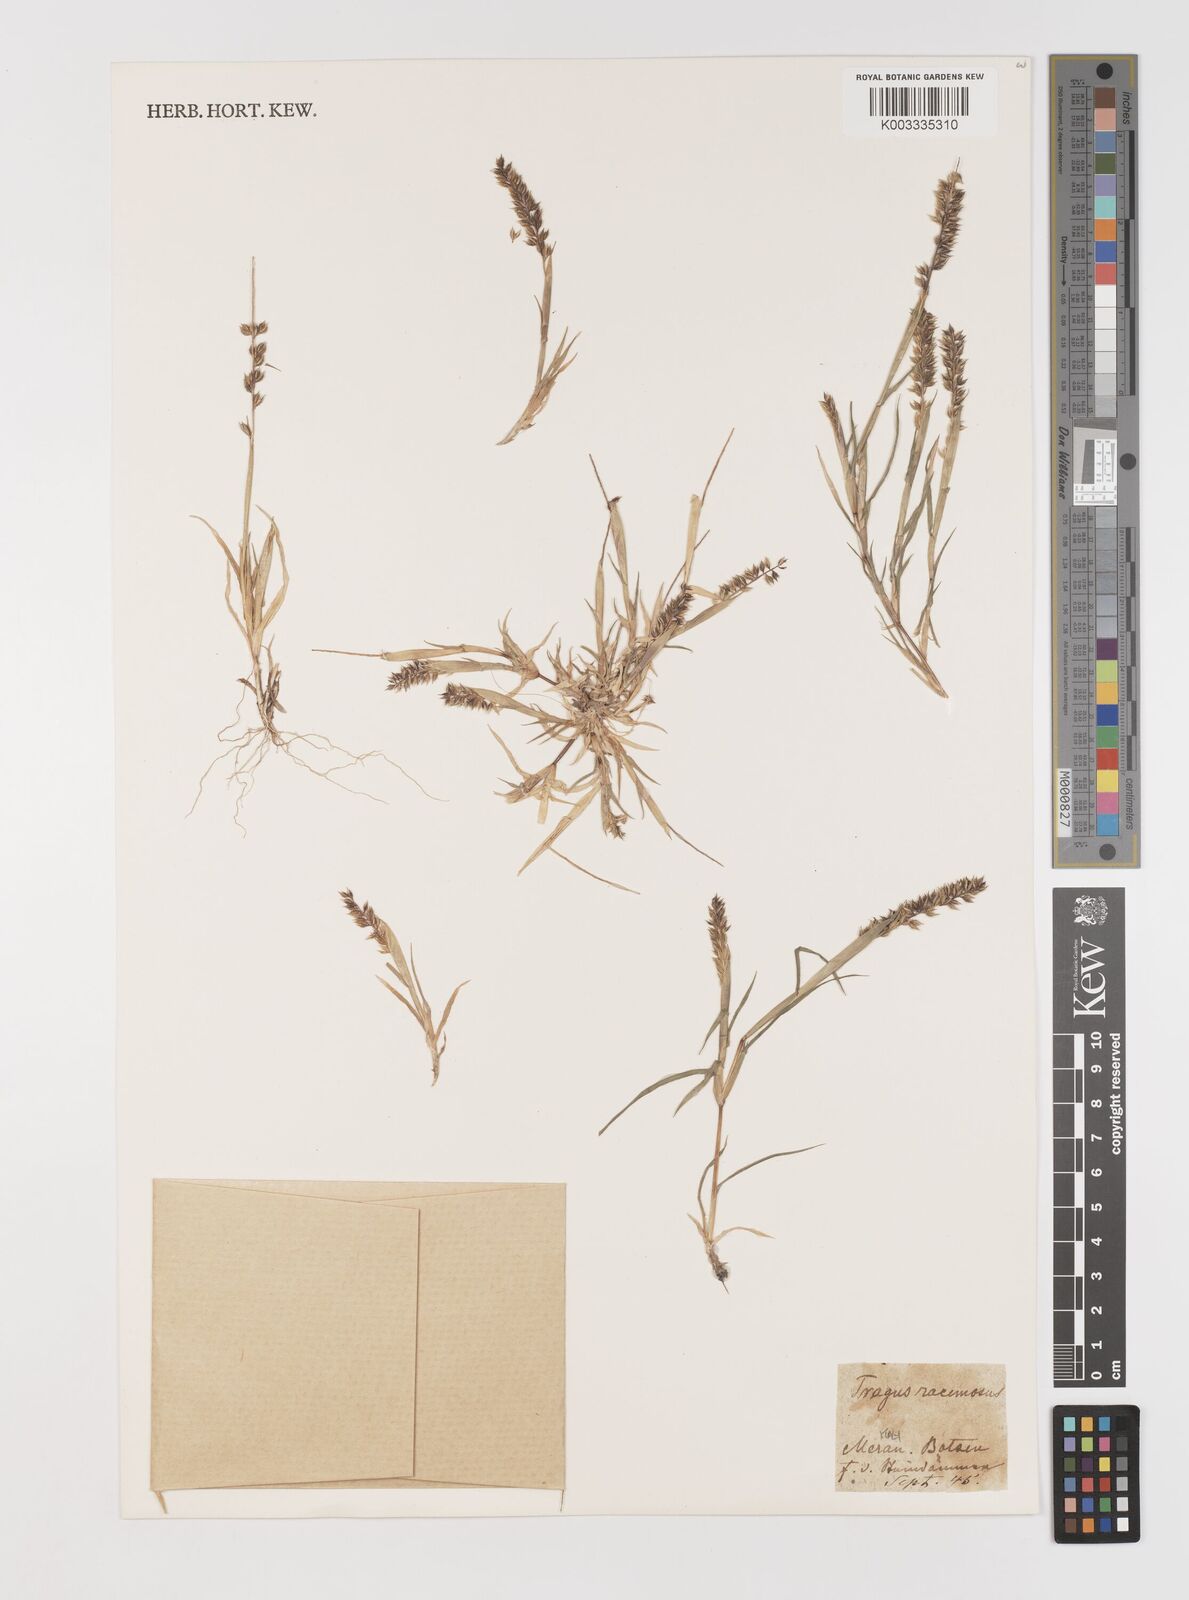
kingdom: Plantae
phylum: Tracheophyta
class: Liliopsida
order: Poales
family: Poaceae
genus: Tragus
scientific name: Tragus racemosus
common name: European bur-grass
